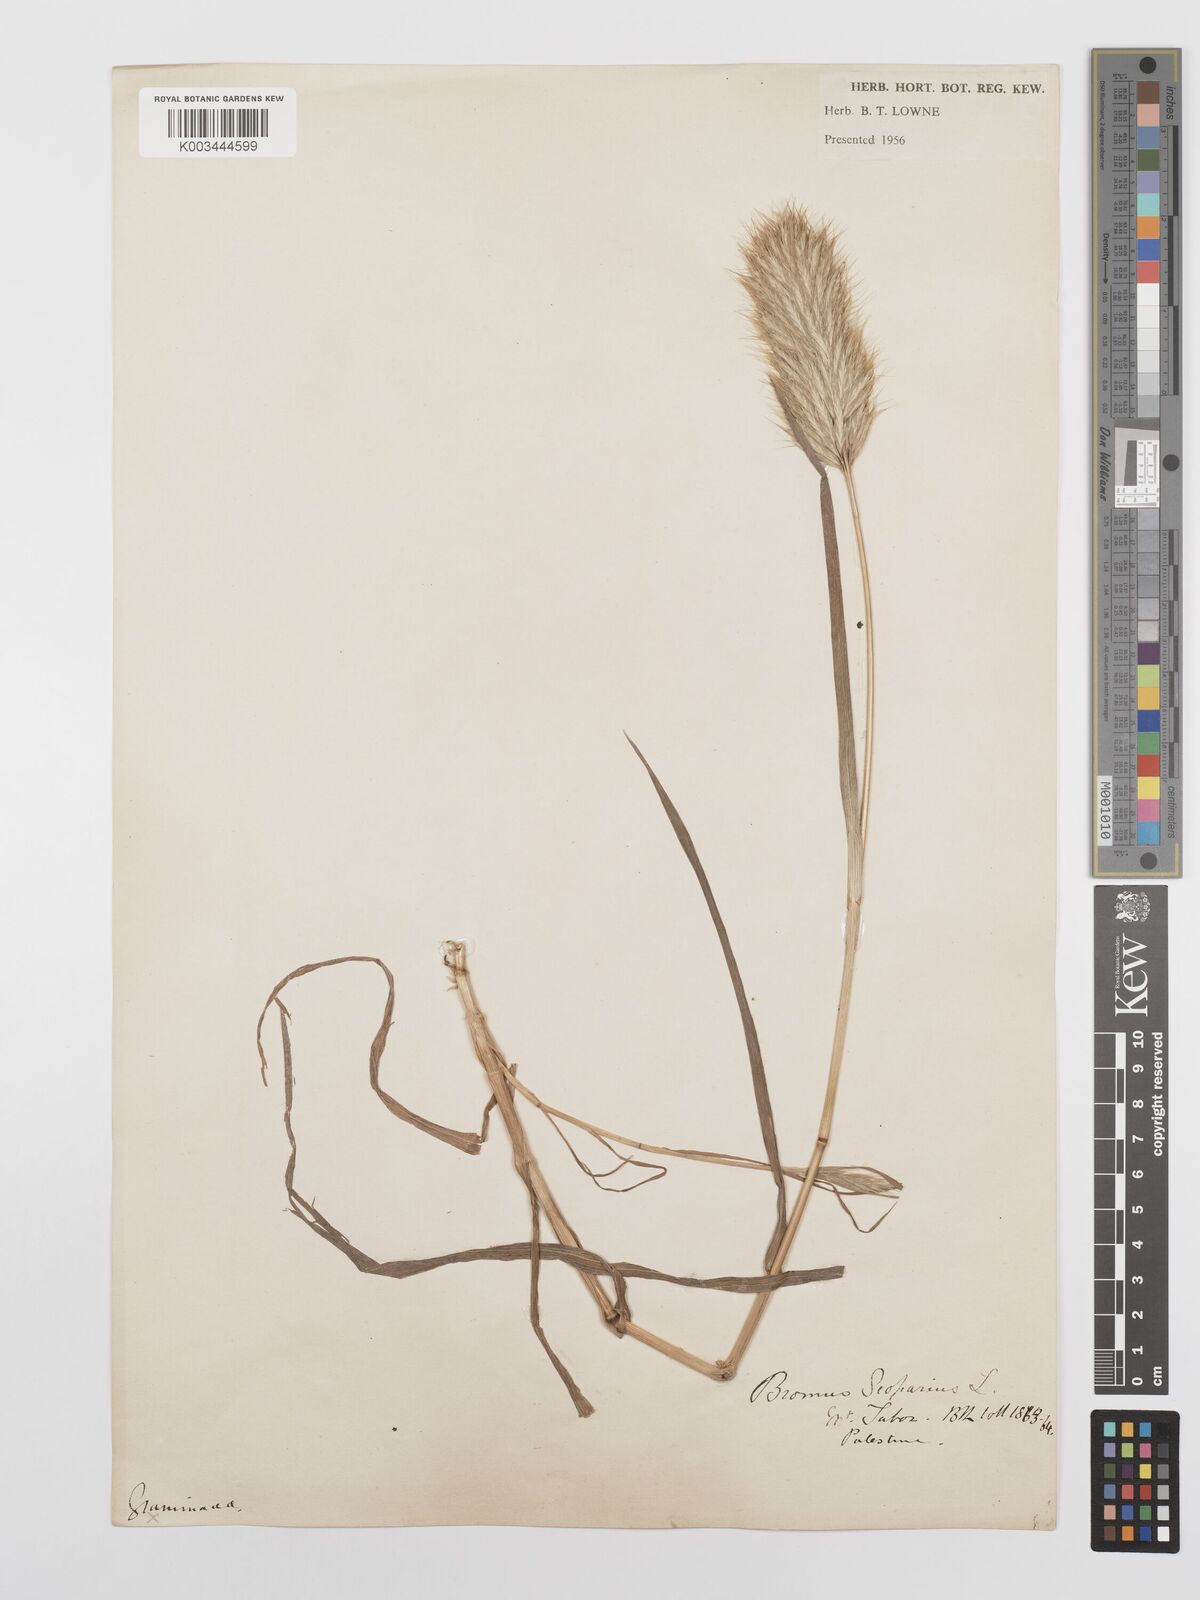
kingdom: Plantae
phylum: Tracheophyta
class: Liliopsida
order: Poales
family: Poaceae
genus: Bromus
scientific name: Bromus scoparius
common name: Broom brome
